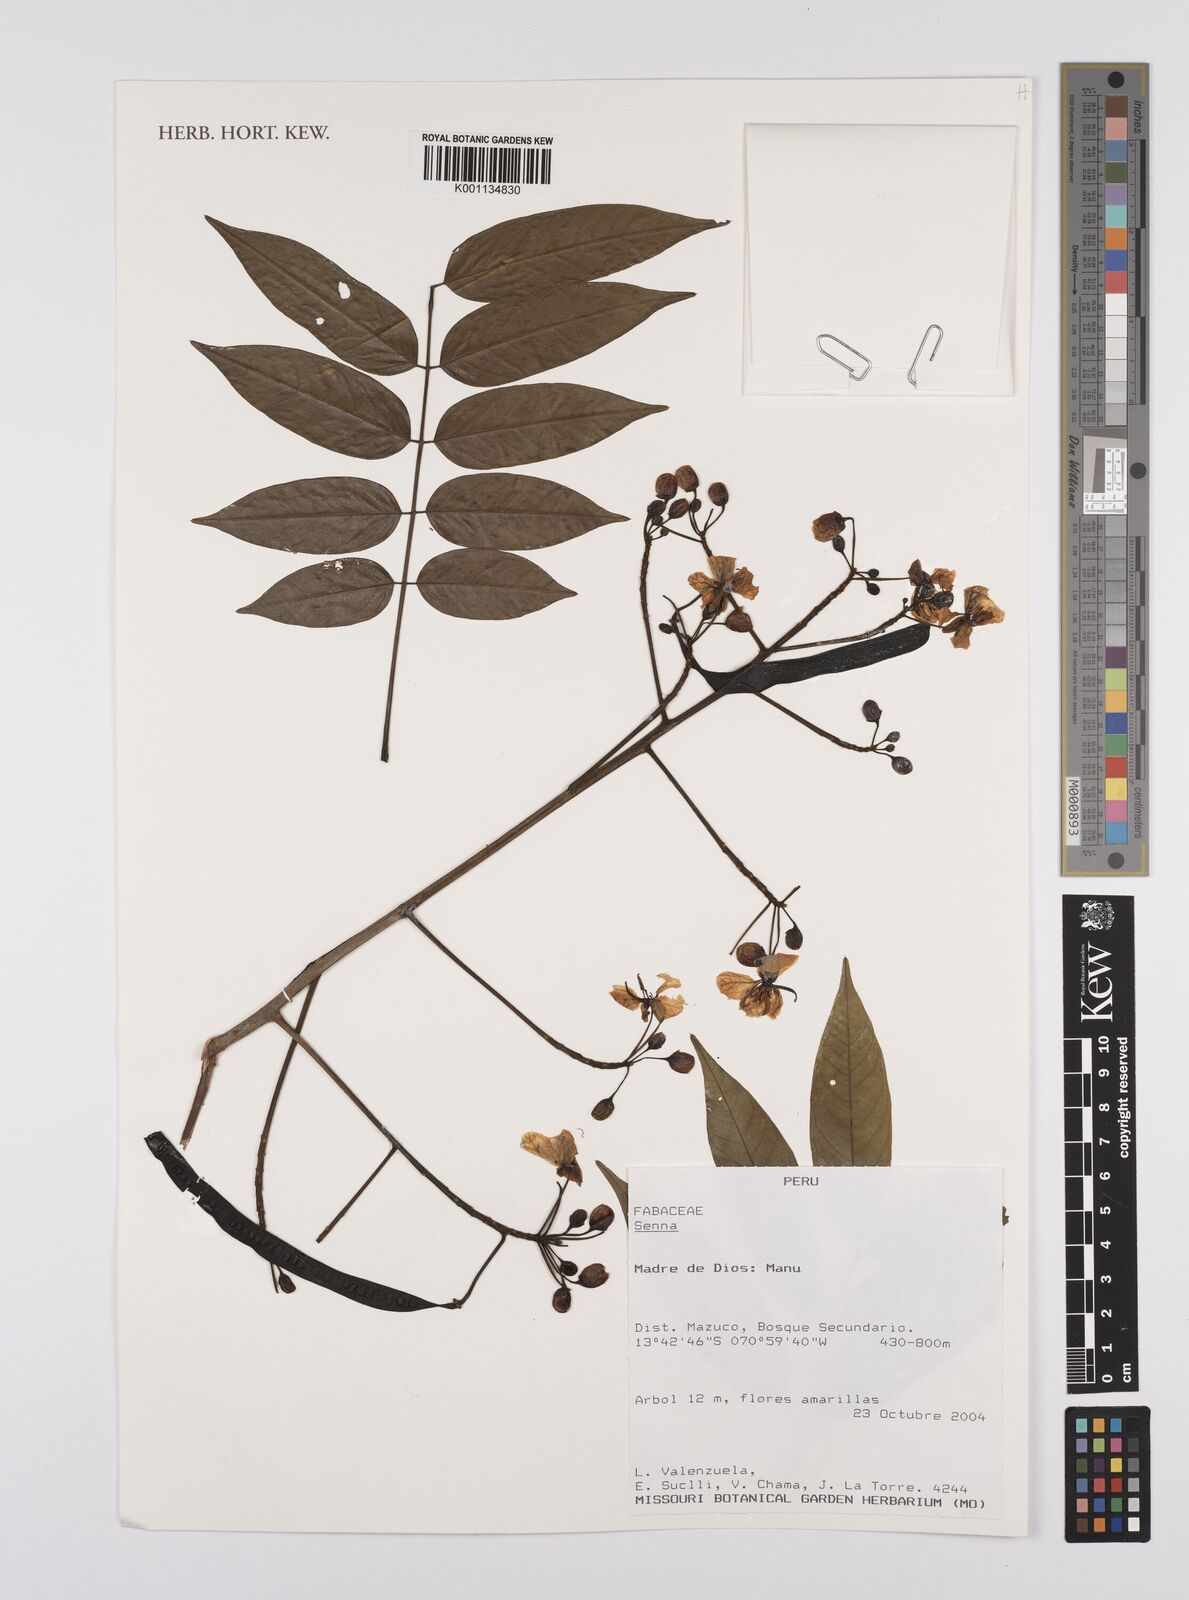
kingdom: Plantae
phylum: Tracheophyta
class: Magnoliopsida
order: Fabales
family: Fabaceae
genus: Senna
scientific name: Senna
